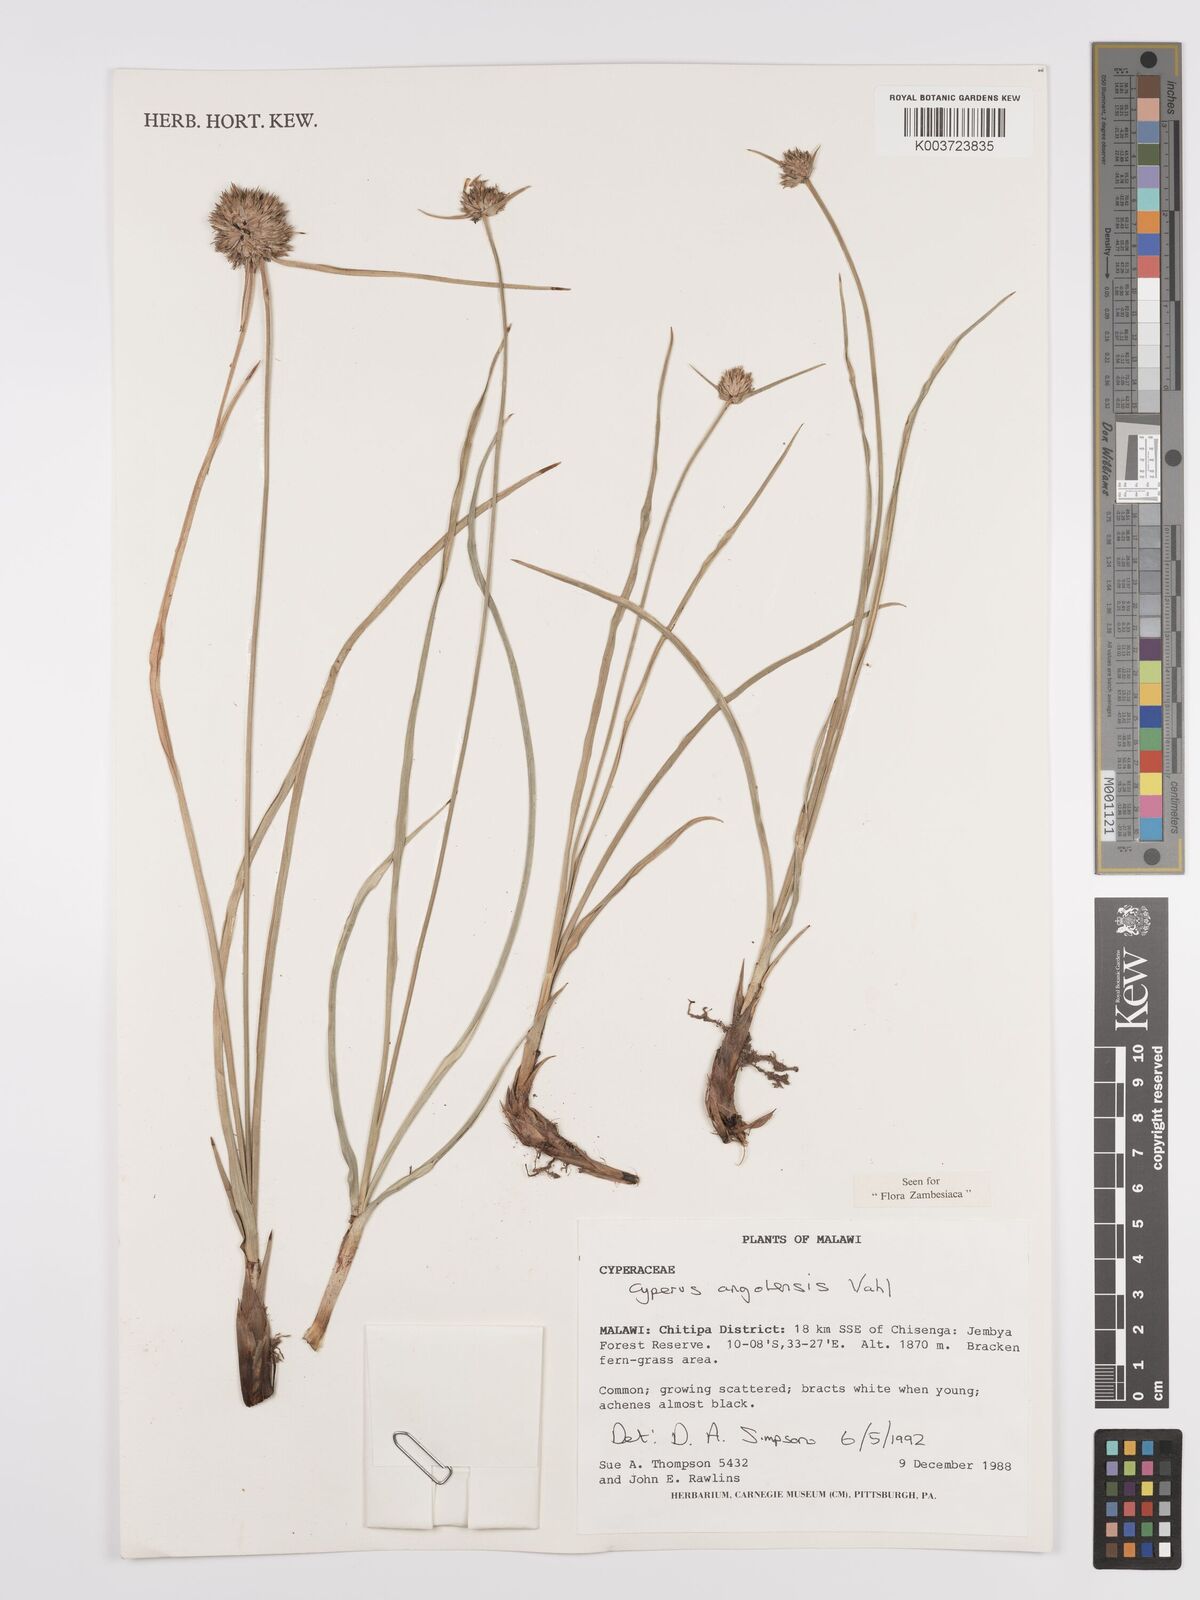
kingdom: Plantae
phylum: Tracheophyta
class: Liliopsida
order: Poales
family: Cyperaceae
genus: Cyperus
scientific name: Cyperus angolensis
